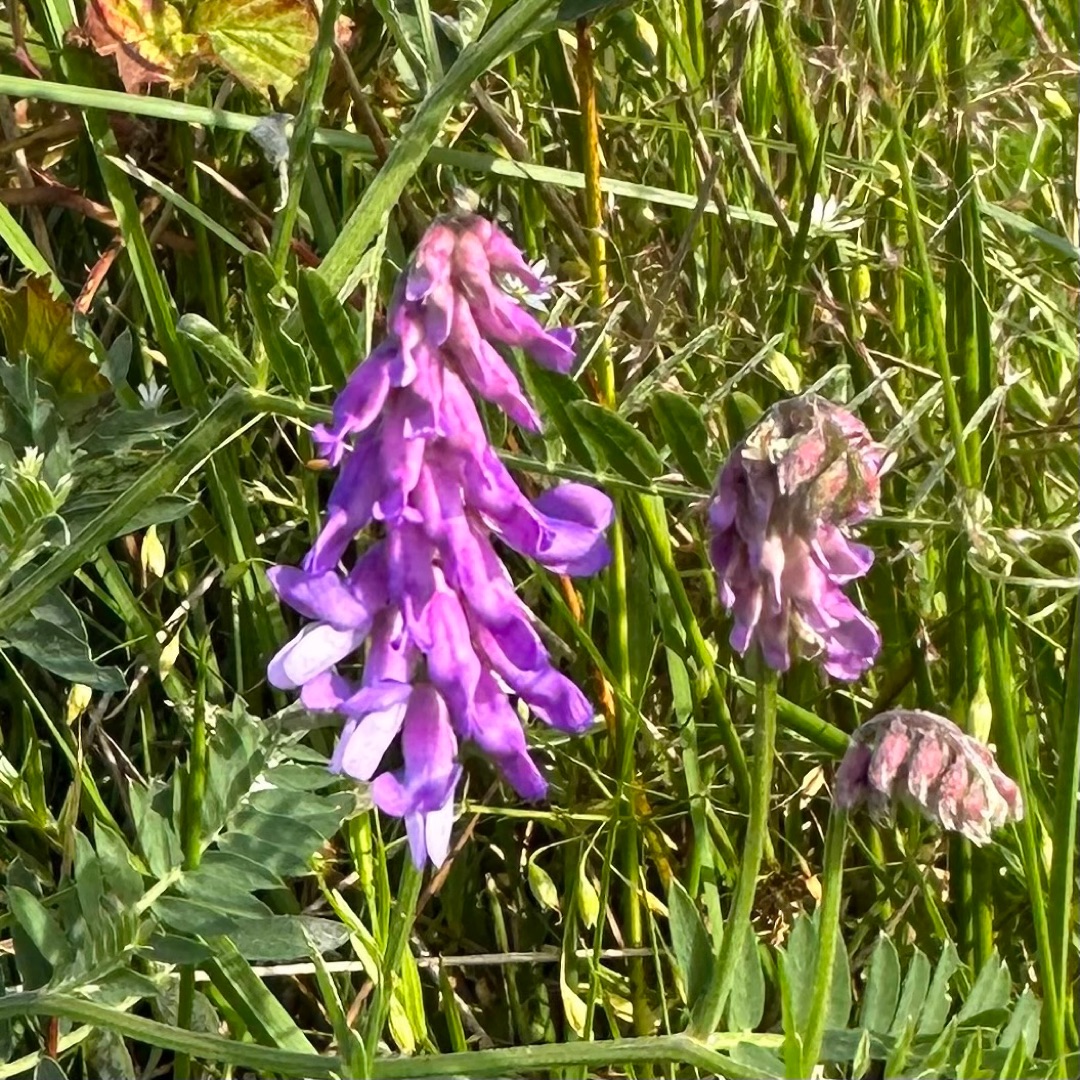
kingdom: Plantae
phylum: Tracheophyta
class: Magnoliopsida
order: Fabales
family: Fabaceae
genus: Vicia
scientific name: Vicia cracca
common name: Muse-vikke
